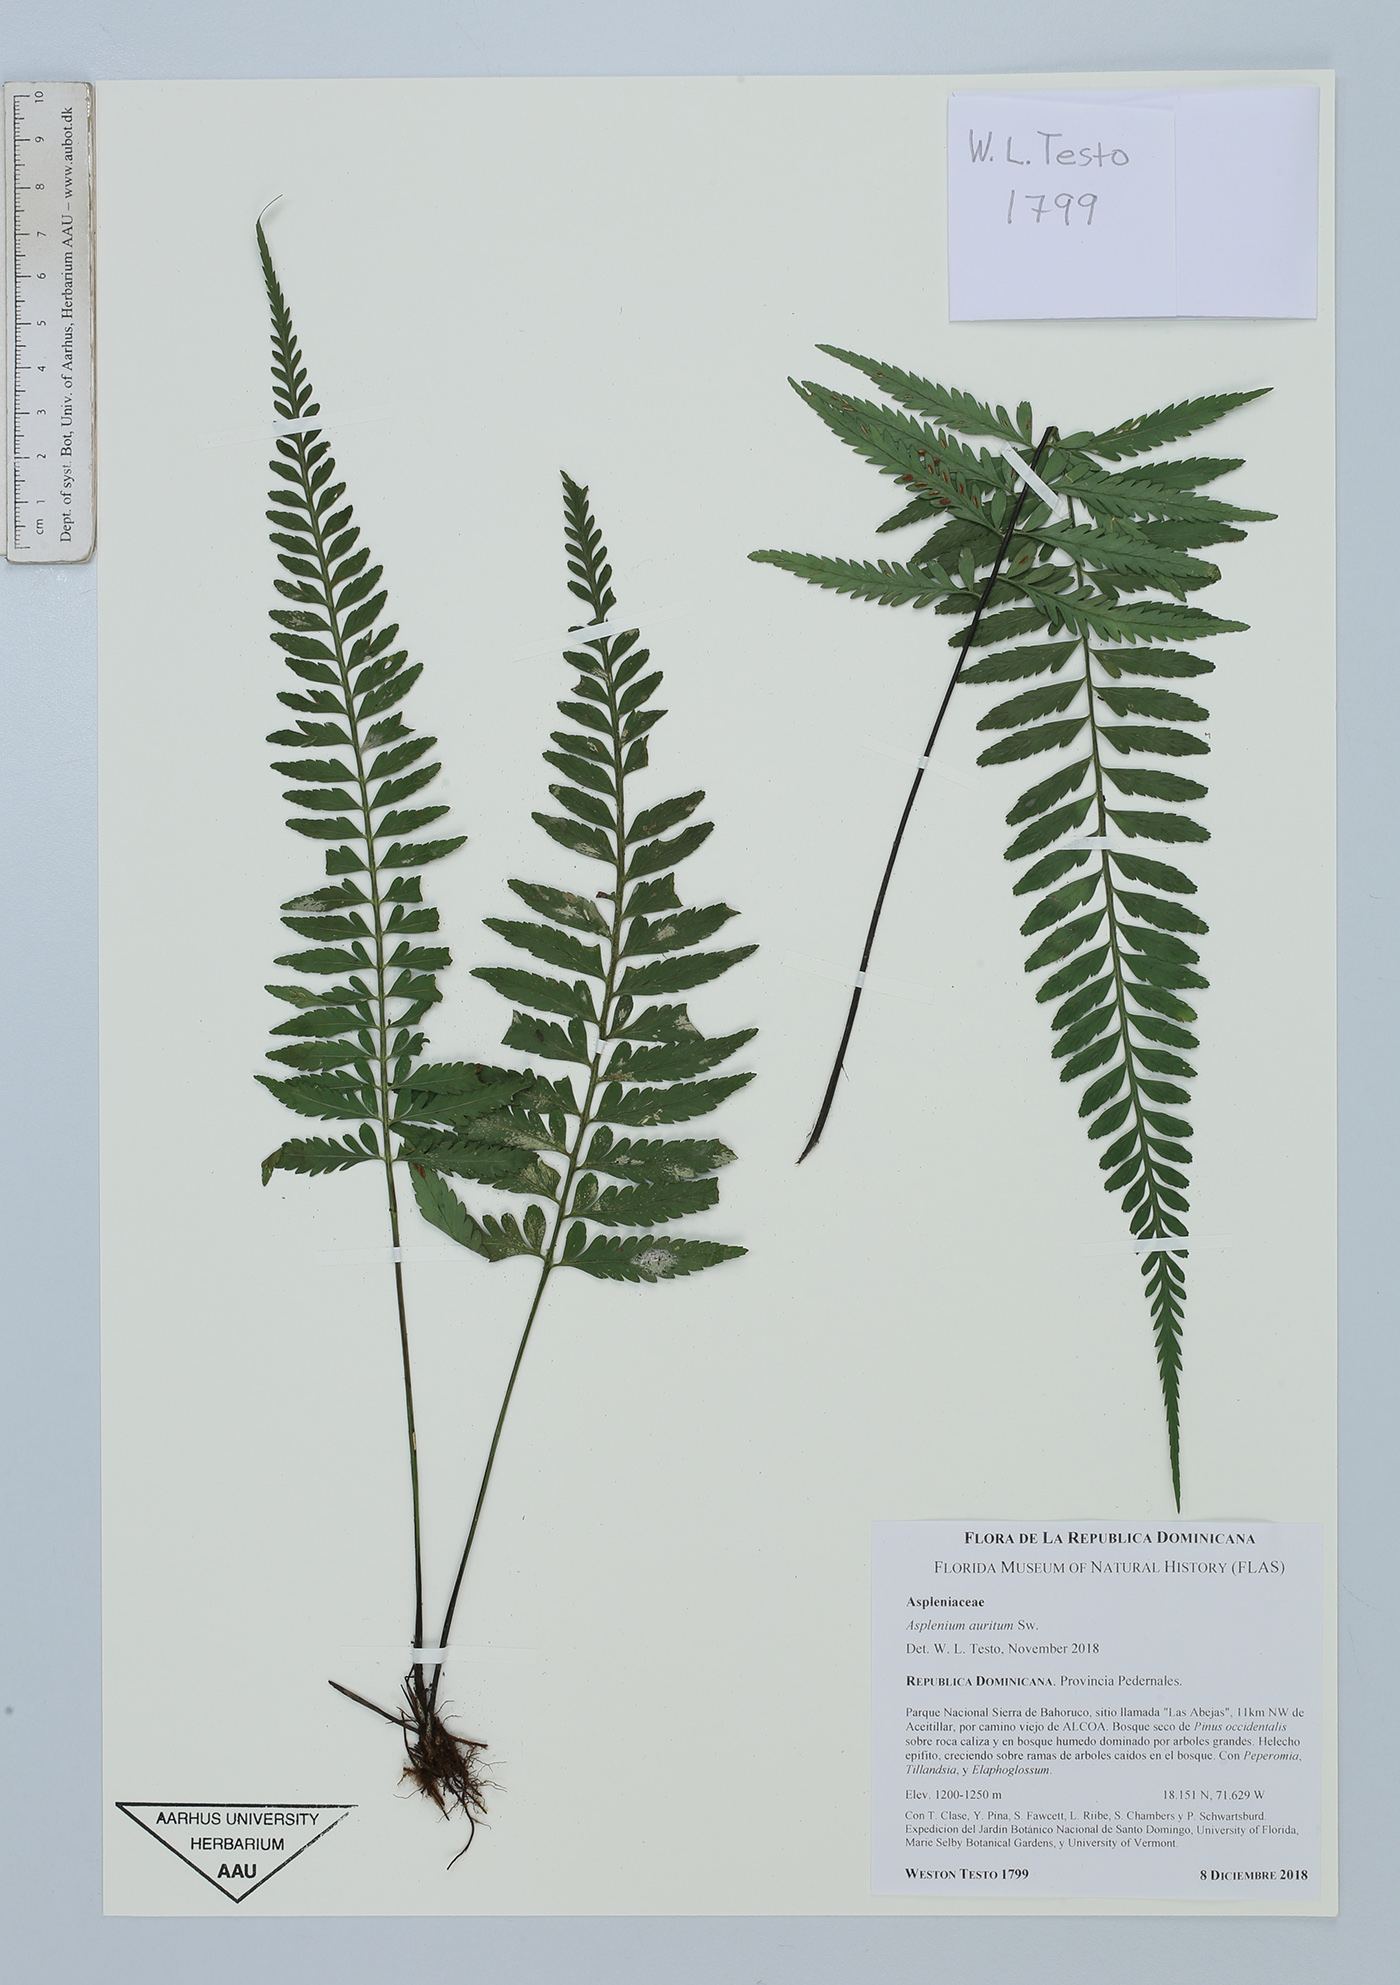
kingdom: Plantae
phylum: Tracheophyta
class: Polypodiopsida
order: Polypodiales
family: Aspleniaceae
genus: Asplenium
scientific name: Asplenium auritum
